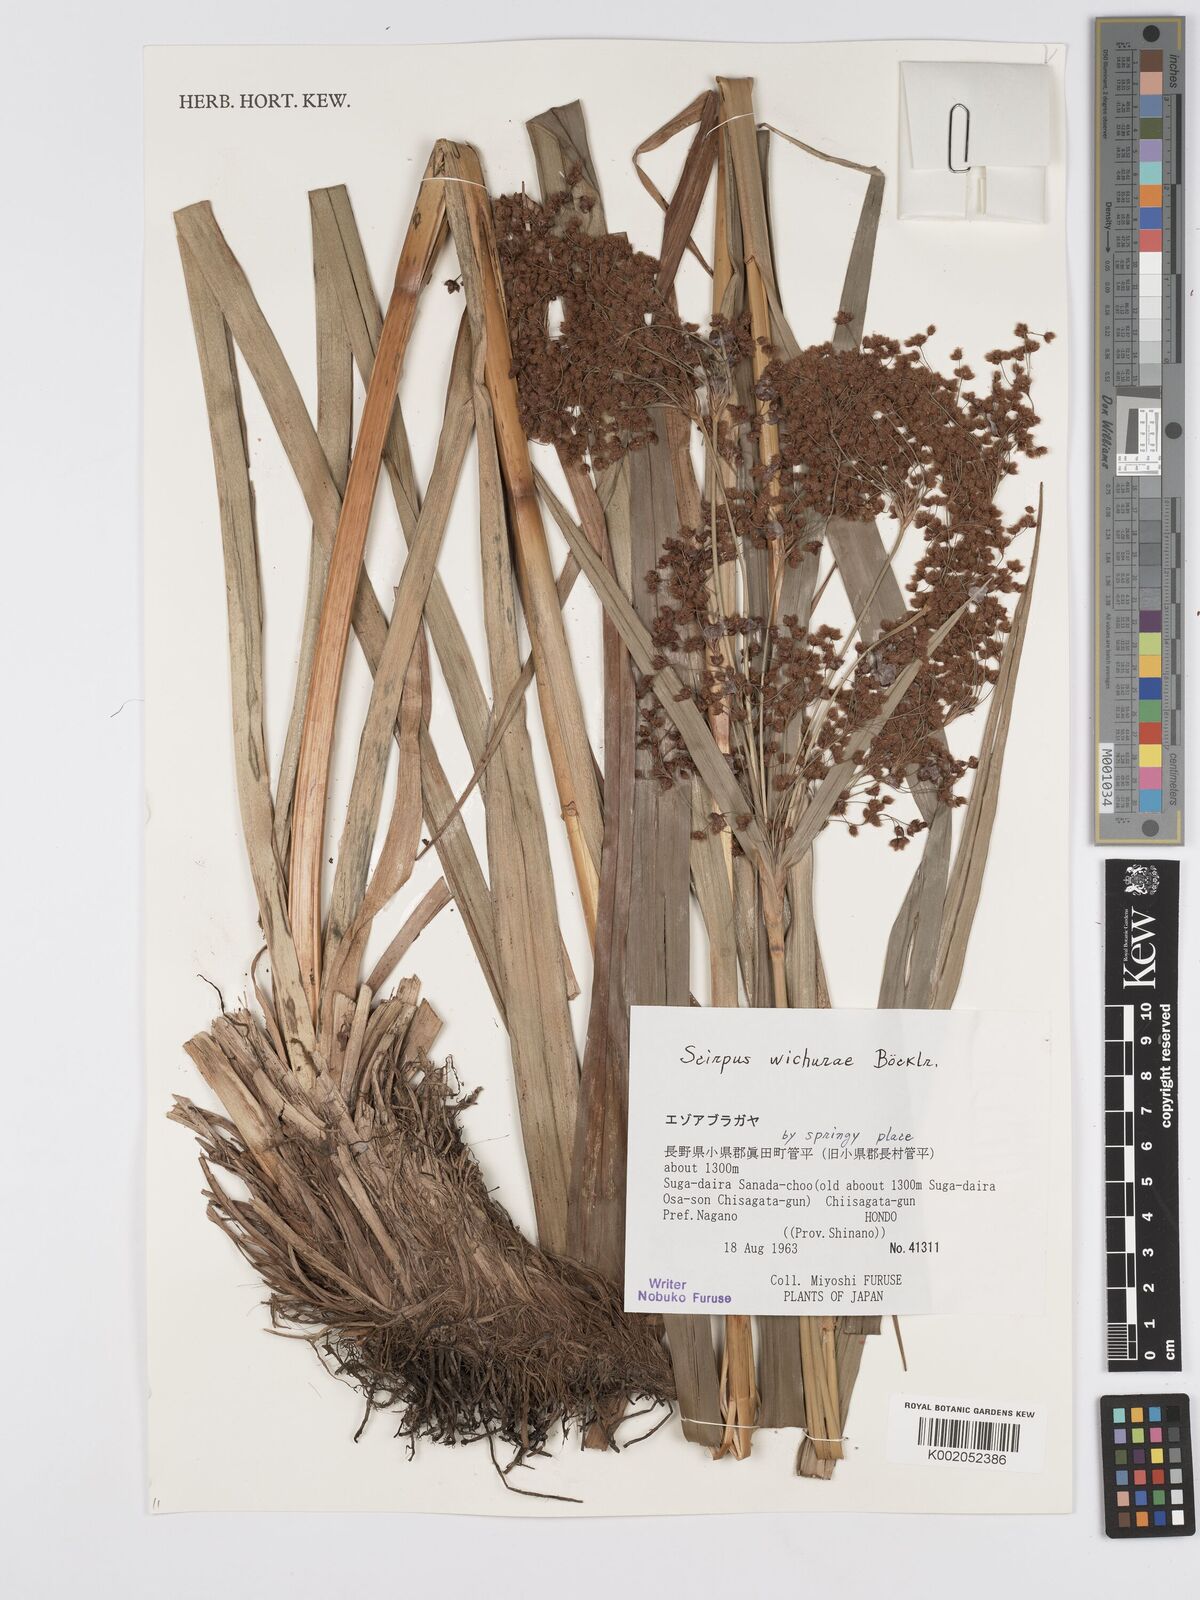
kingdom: Plantae
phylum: Tracheophyta
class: Liliopsida
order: Poales
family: Cyperaceae
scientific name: Cyperaceae
